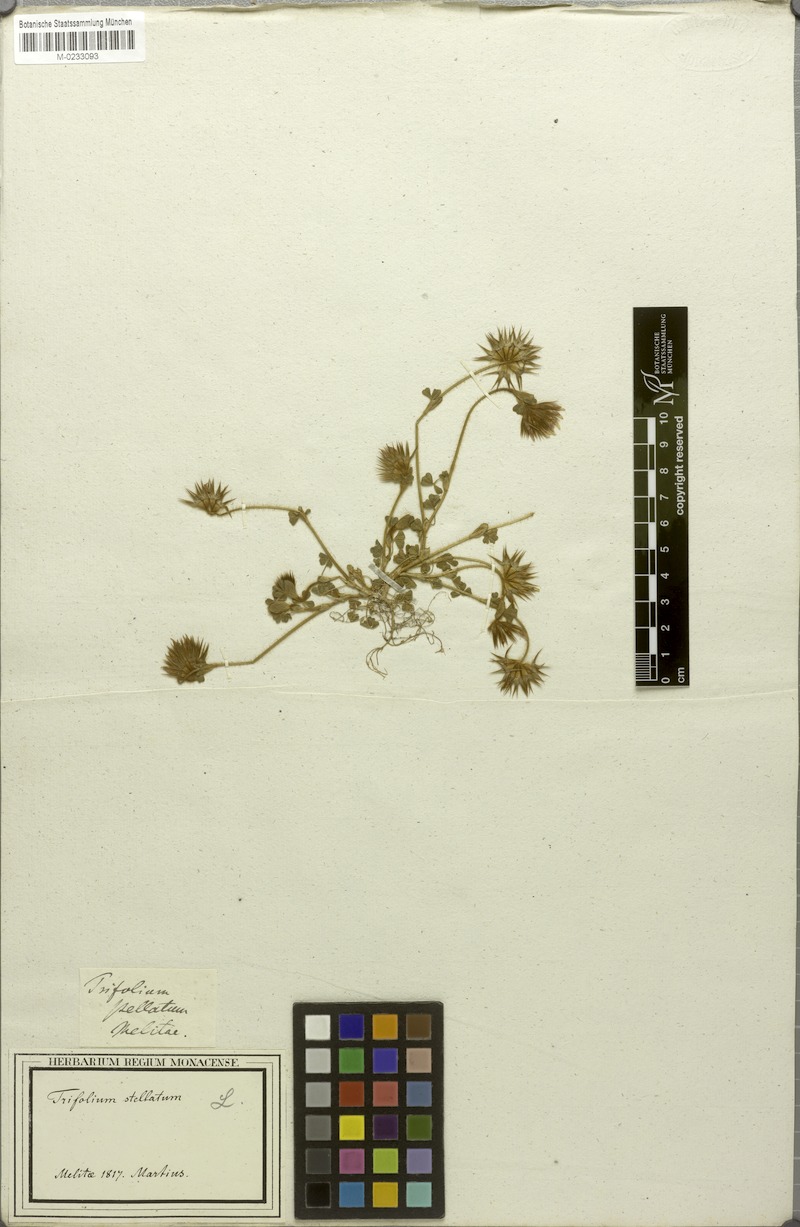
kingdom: Plantae
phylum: Tracheophyta
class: Magnoliopsida
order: Fabales
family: Fabaceae
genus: Trifolium
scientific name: Trifolium stellatum
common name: Starry clover
